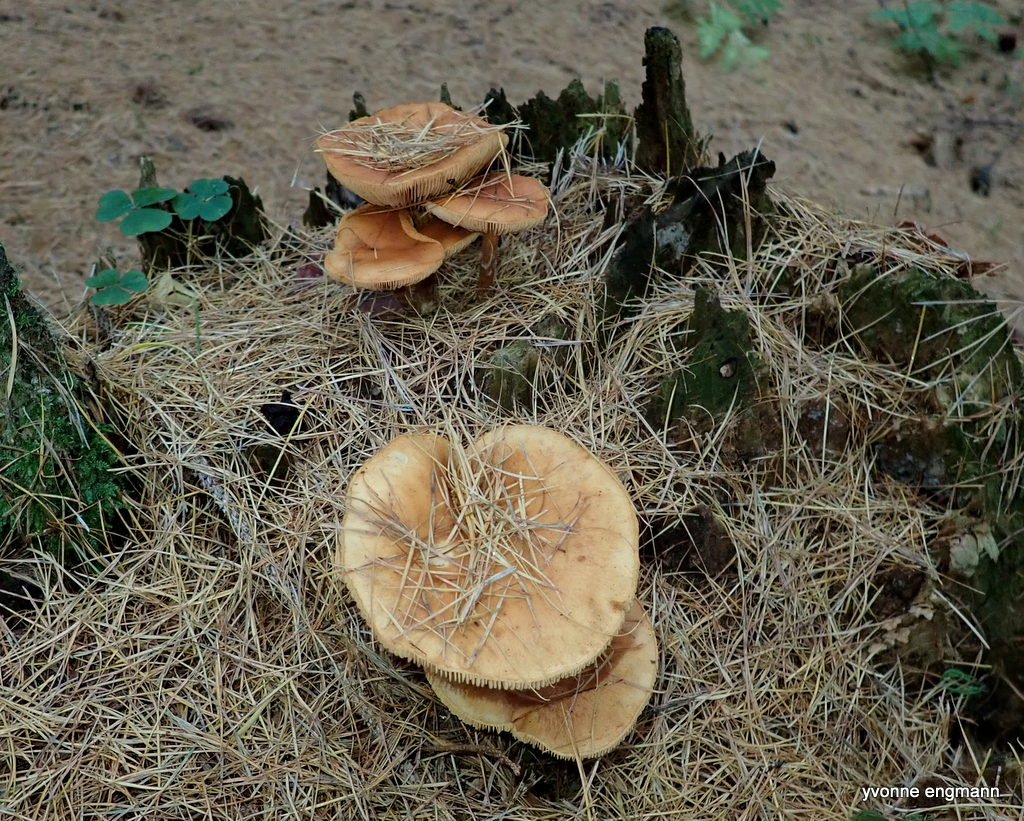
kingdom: Fungi
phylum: Basidiomycota
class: Agaricomycetes
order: Agaricales
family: Hymenogastraceae
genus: Gymnopilus
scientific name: Gymnopilus penetrans
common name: plettet flammehat
